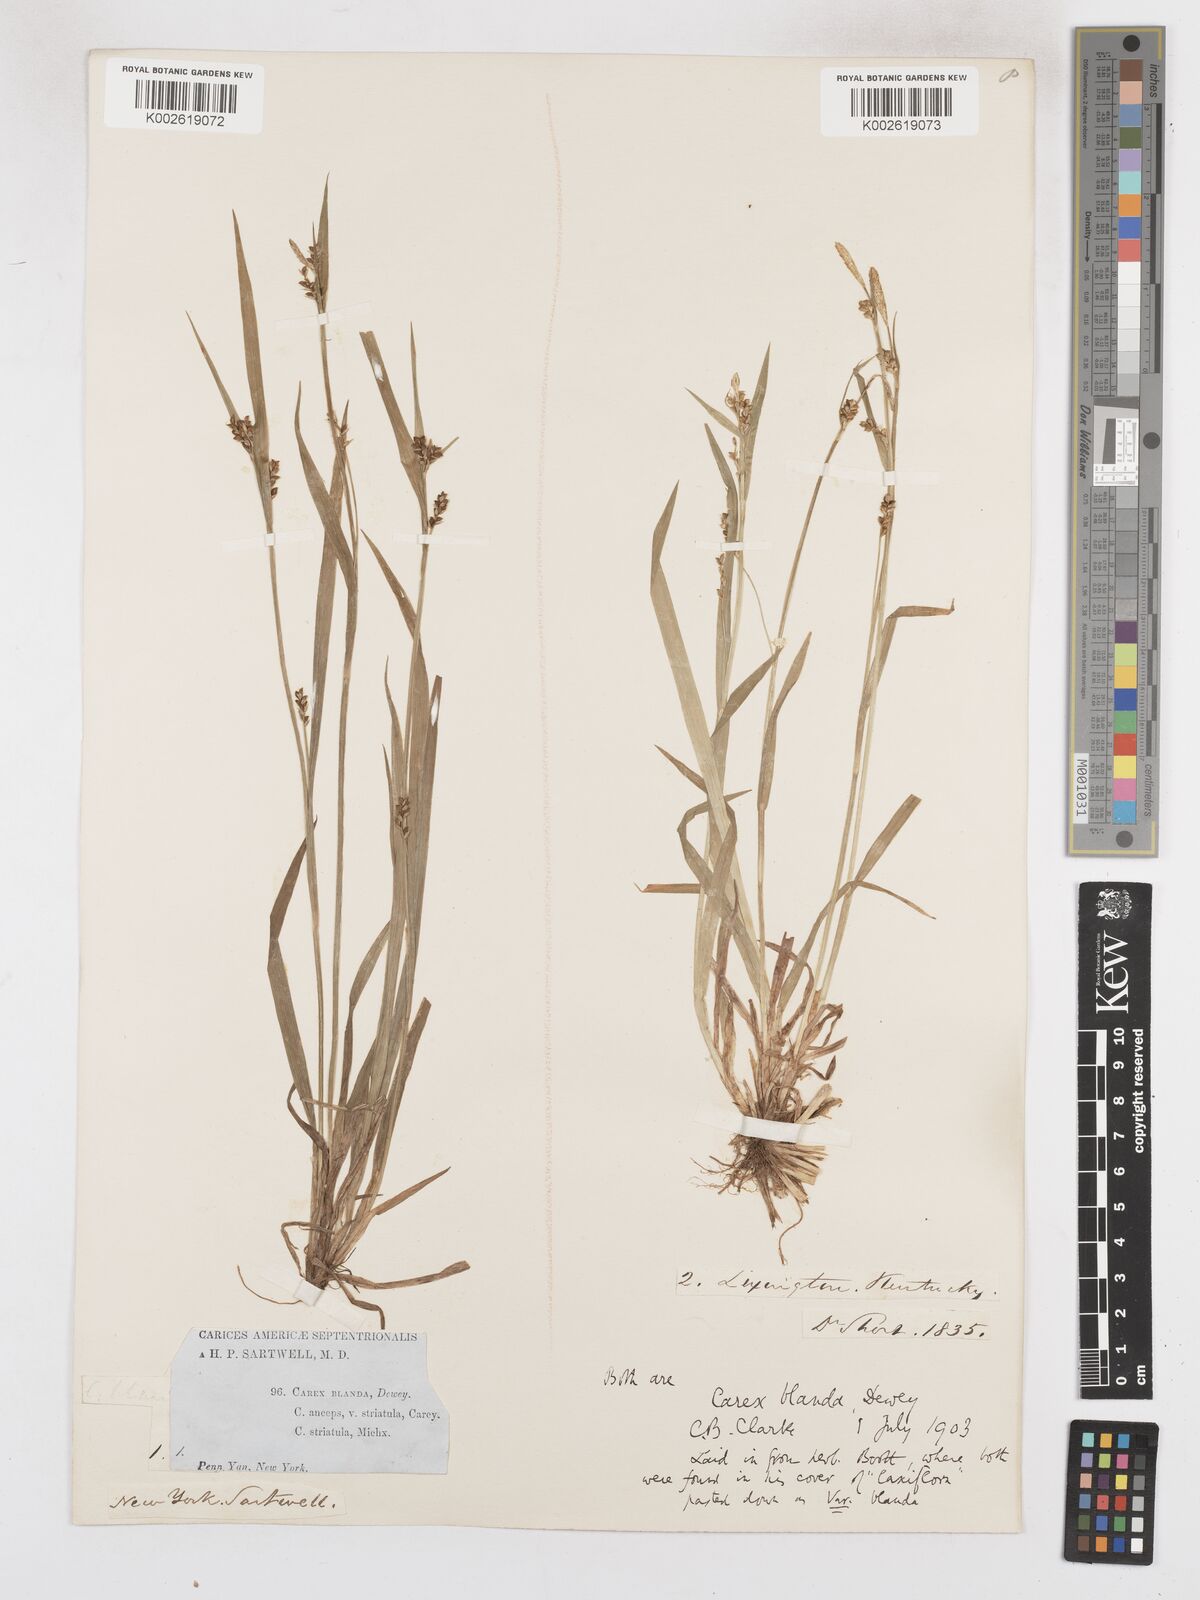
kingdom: Plantae
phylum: Tracheophyta
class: Liliopsida
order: Poales
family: Cyperaceae
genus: Carex
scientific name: Carex blanda
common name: Bland sedge
